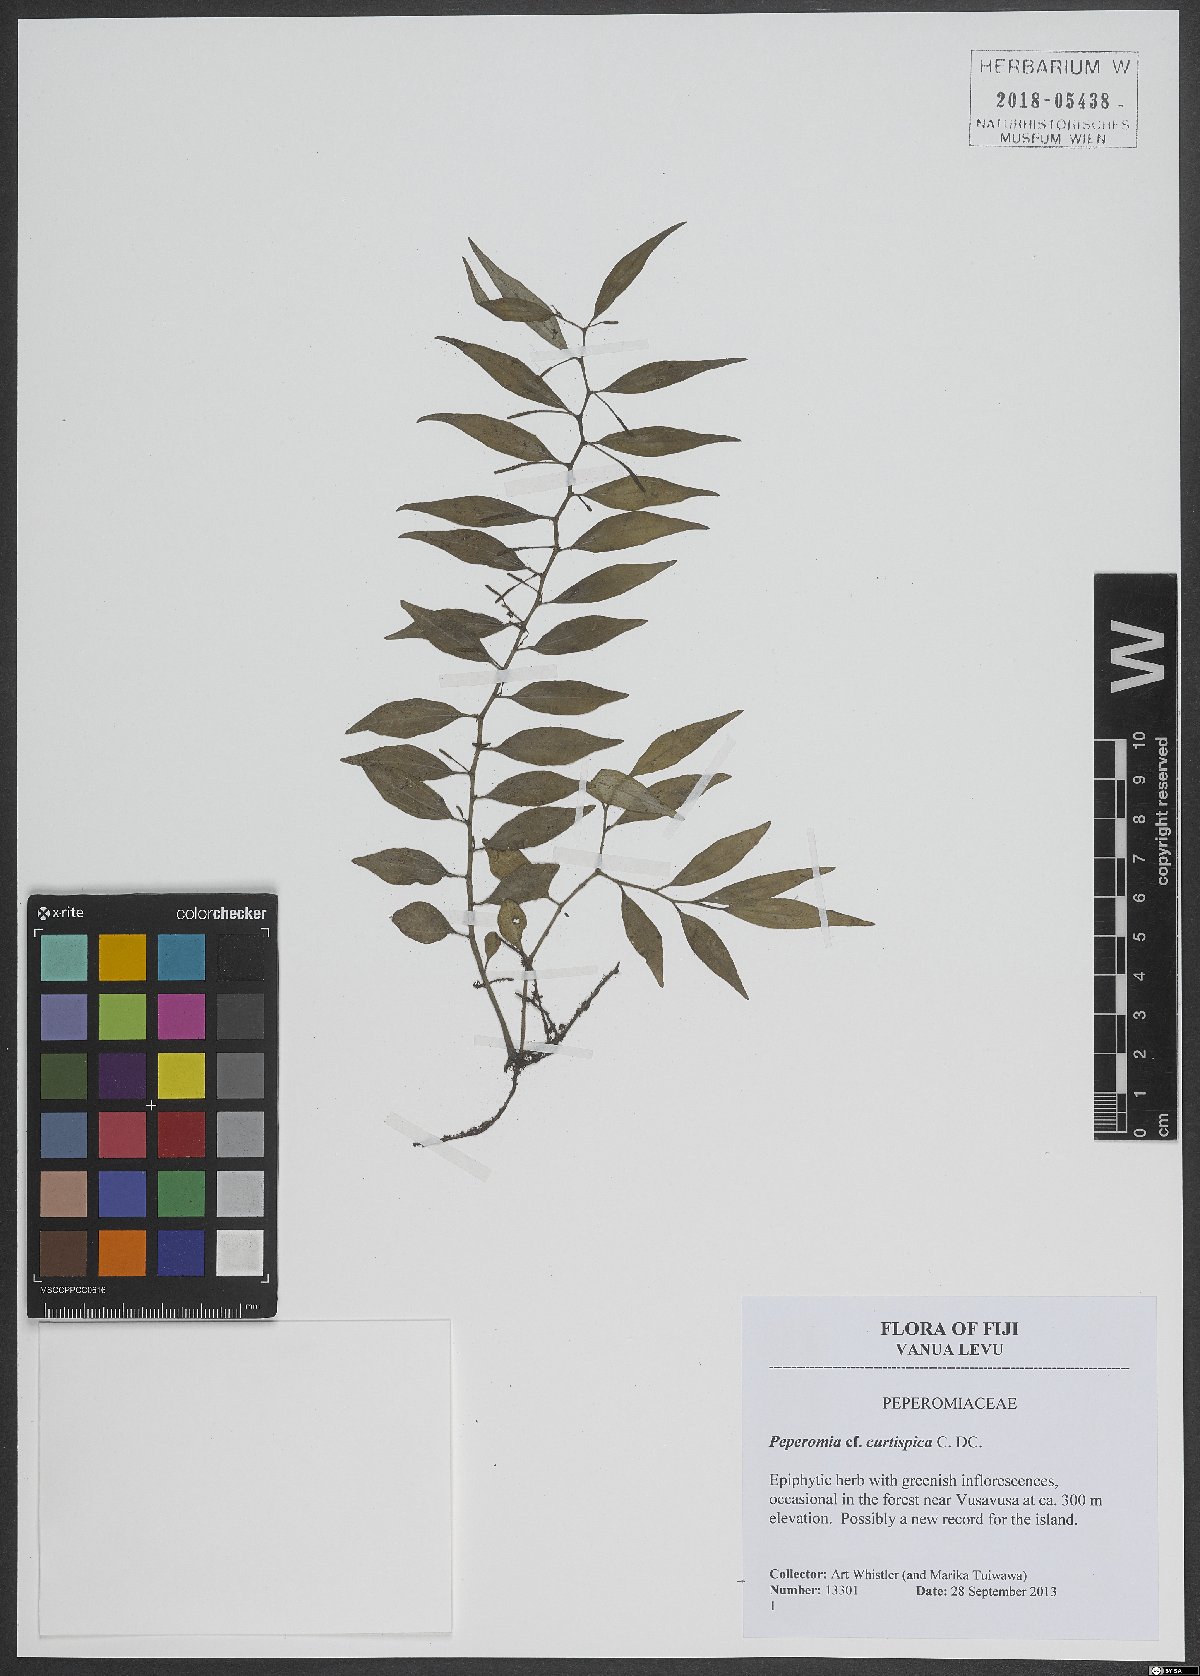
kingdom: Plantae
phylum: Tracheophyta
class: Magnoliopsida
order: Piperales
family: Piperaceae
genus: Peperomia
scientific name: Peperomia curtispica
